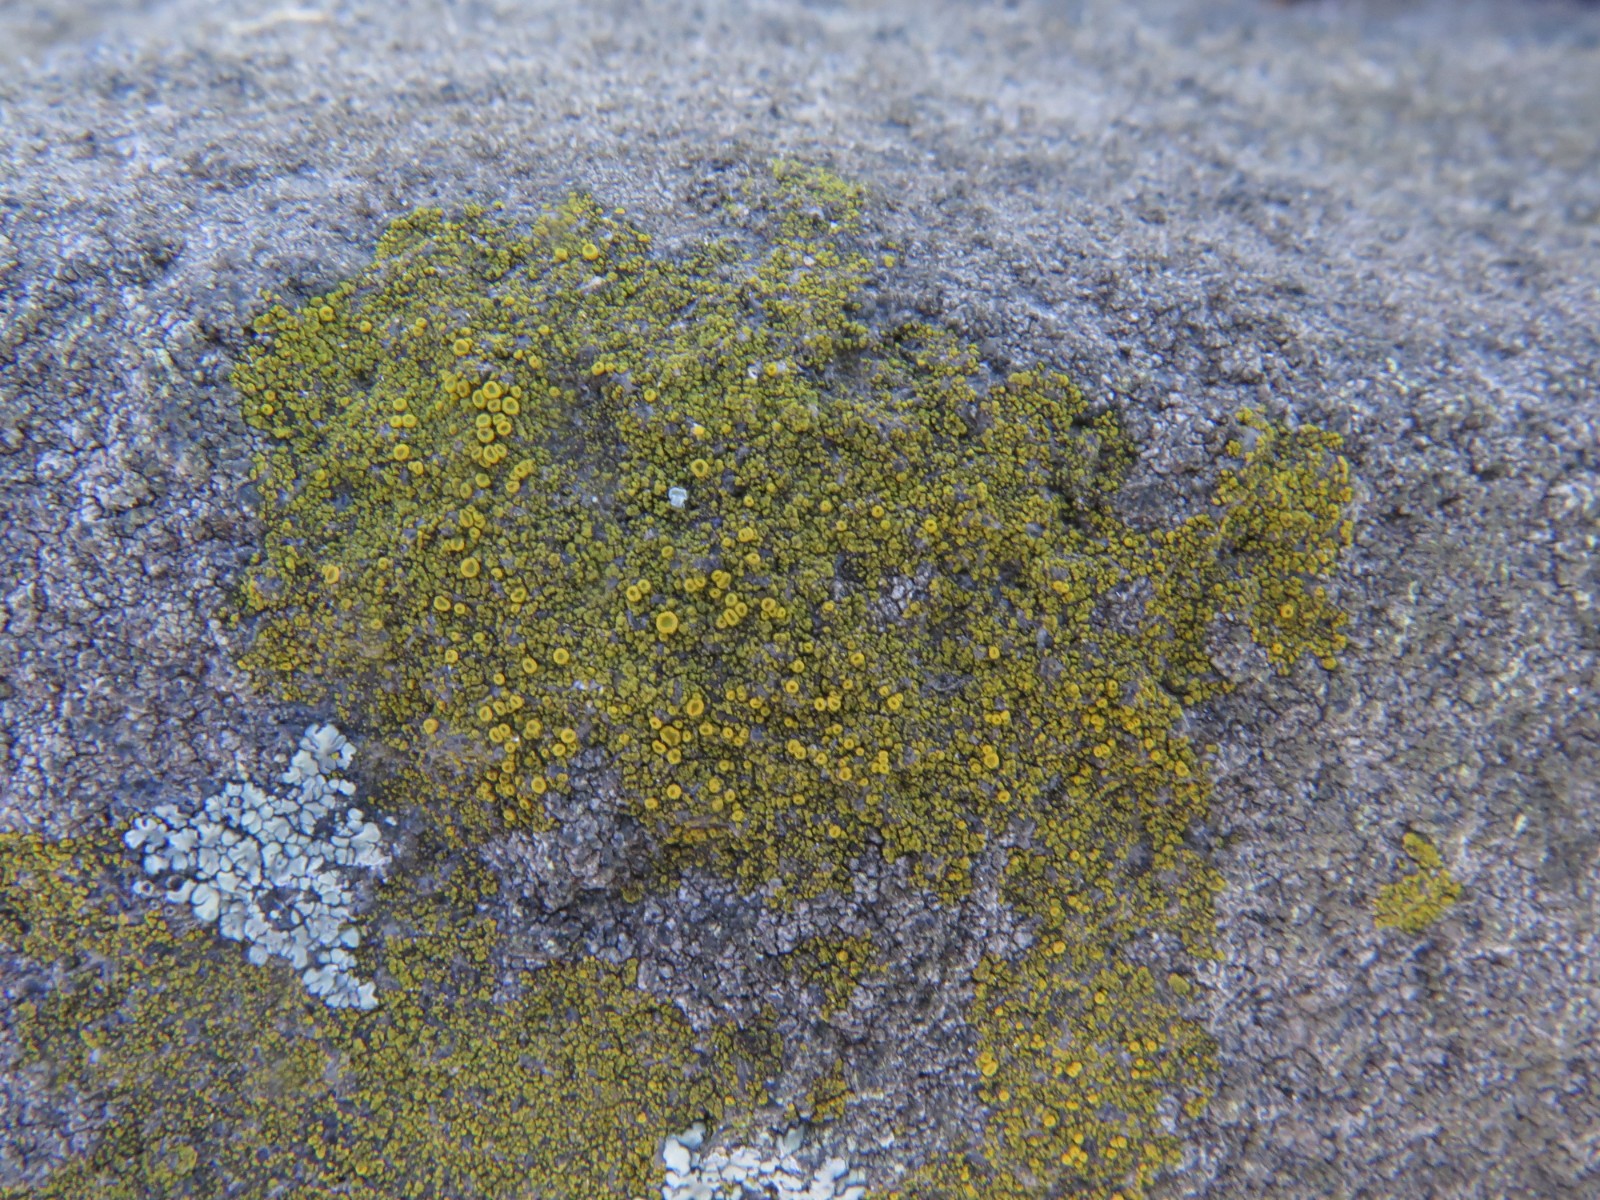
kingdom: Fungi
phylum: Ascomycota
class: Candelariomycetes
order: Candelariales
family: Candelariaceae
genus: Candelariella
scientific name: Candelariella vitellina
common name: almindelig æggeblommelav
